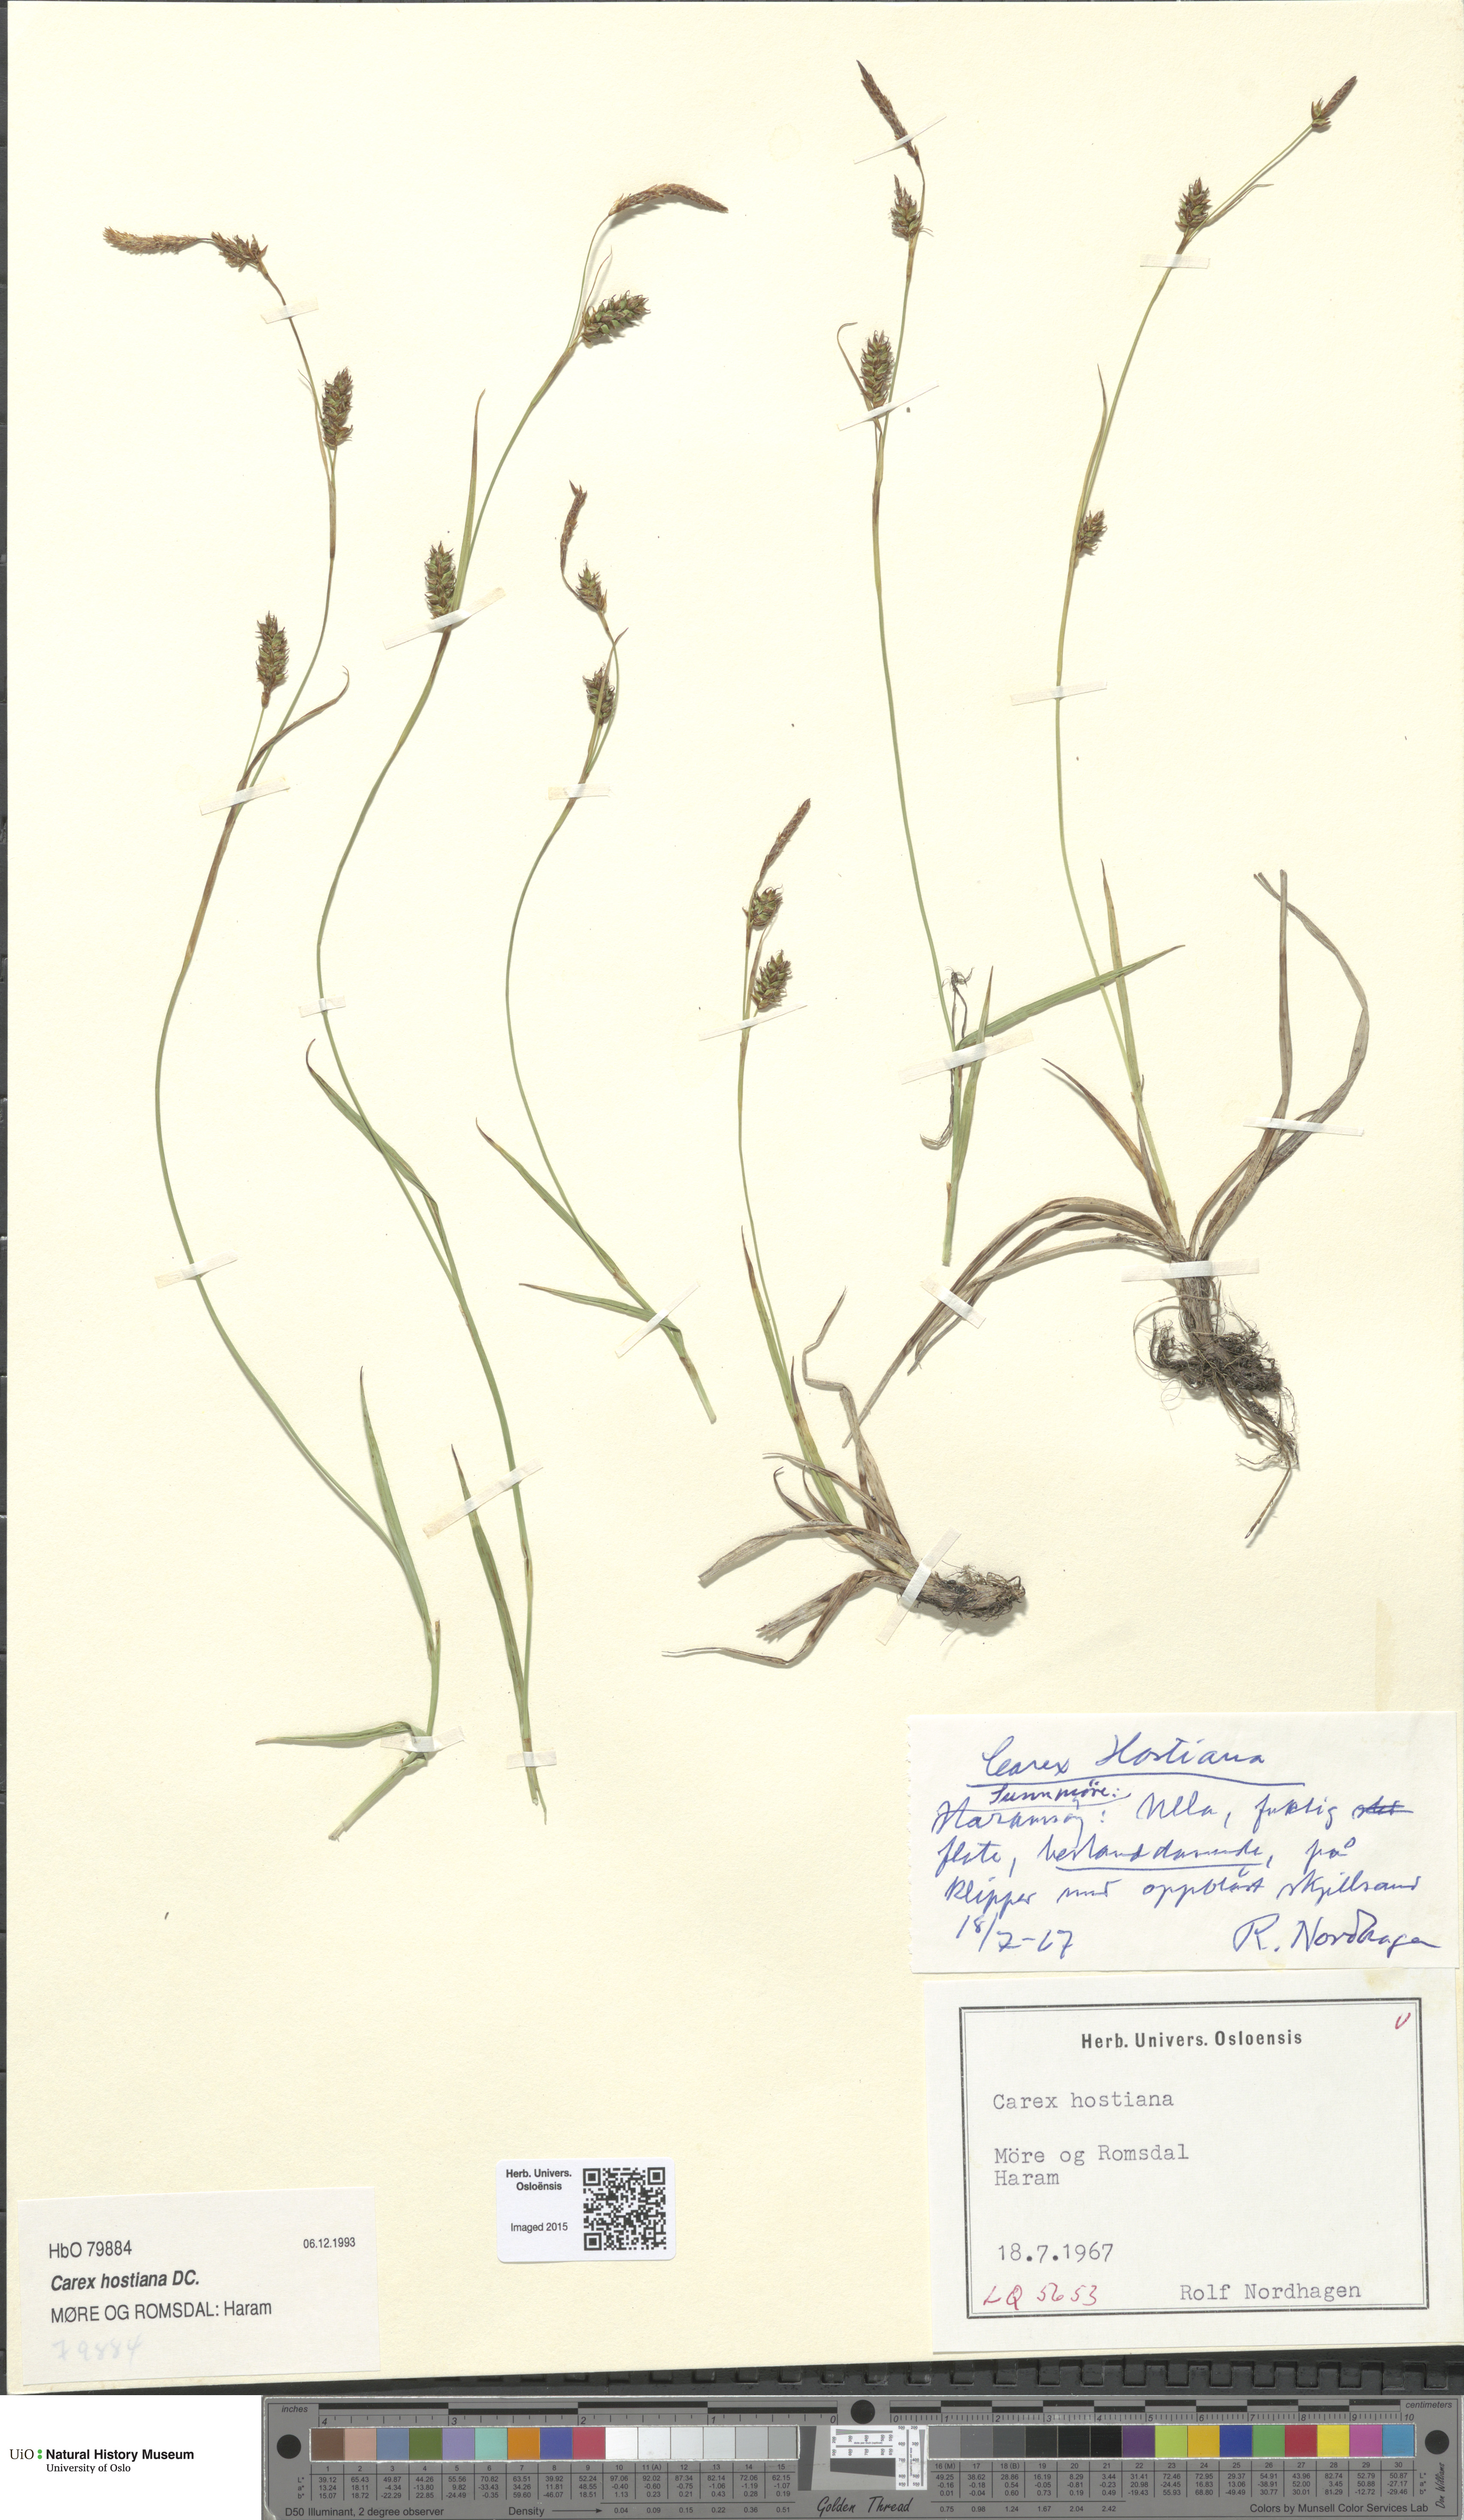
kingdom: Plantae
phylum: Tracheophyta
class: Liliopsida
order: Poales
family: Cyperaceae
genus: Carex
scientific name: Carex hostiana
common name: Tawny sedge
